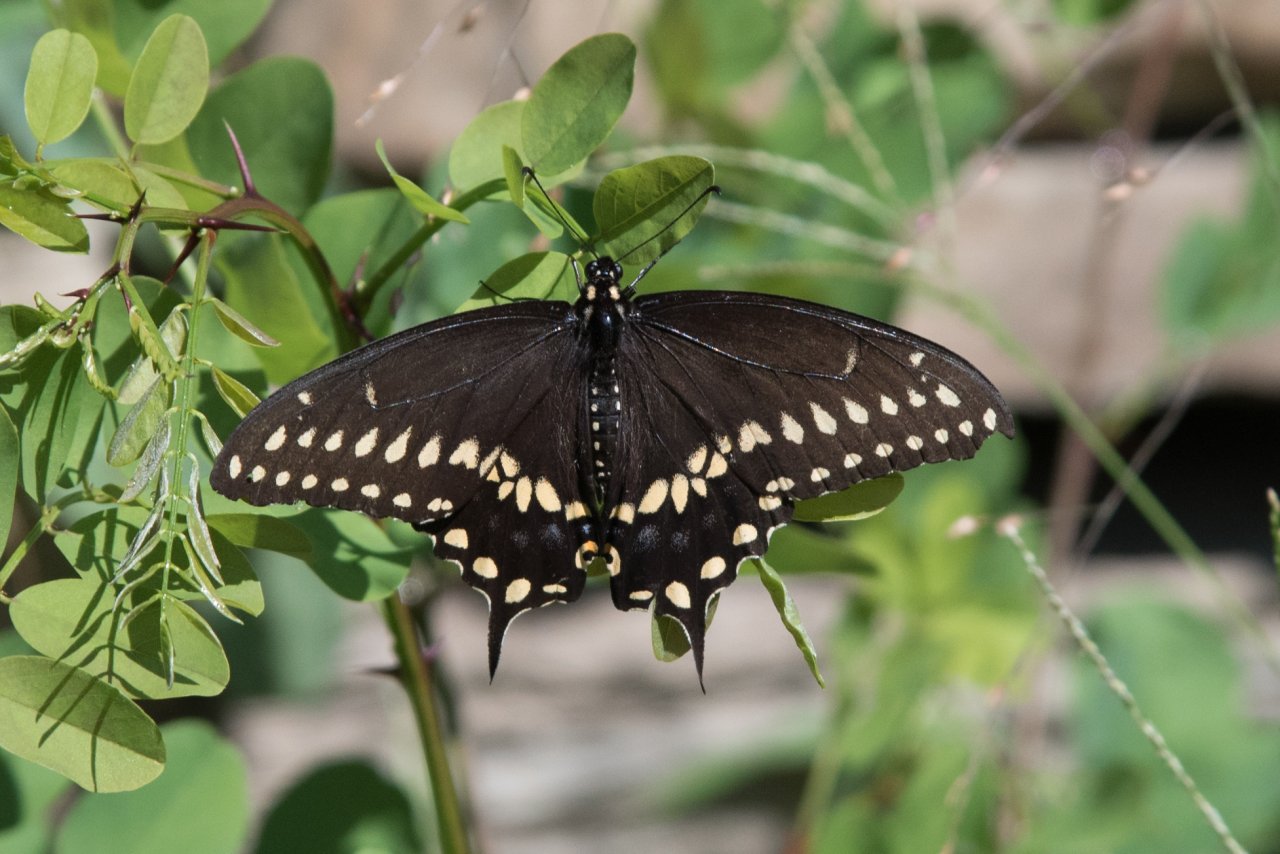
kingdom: Animalia
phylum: Arthropoda
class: Insecta
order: Lepidoptera
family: Papilionidae
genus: Papilio
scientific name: Papilio polyxenes
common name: Black Swallowtail
